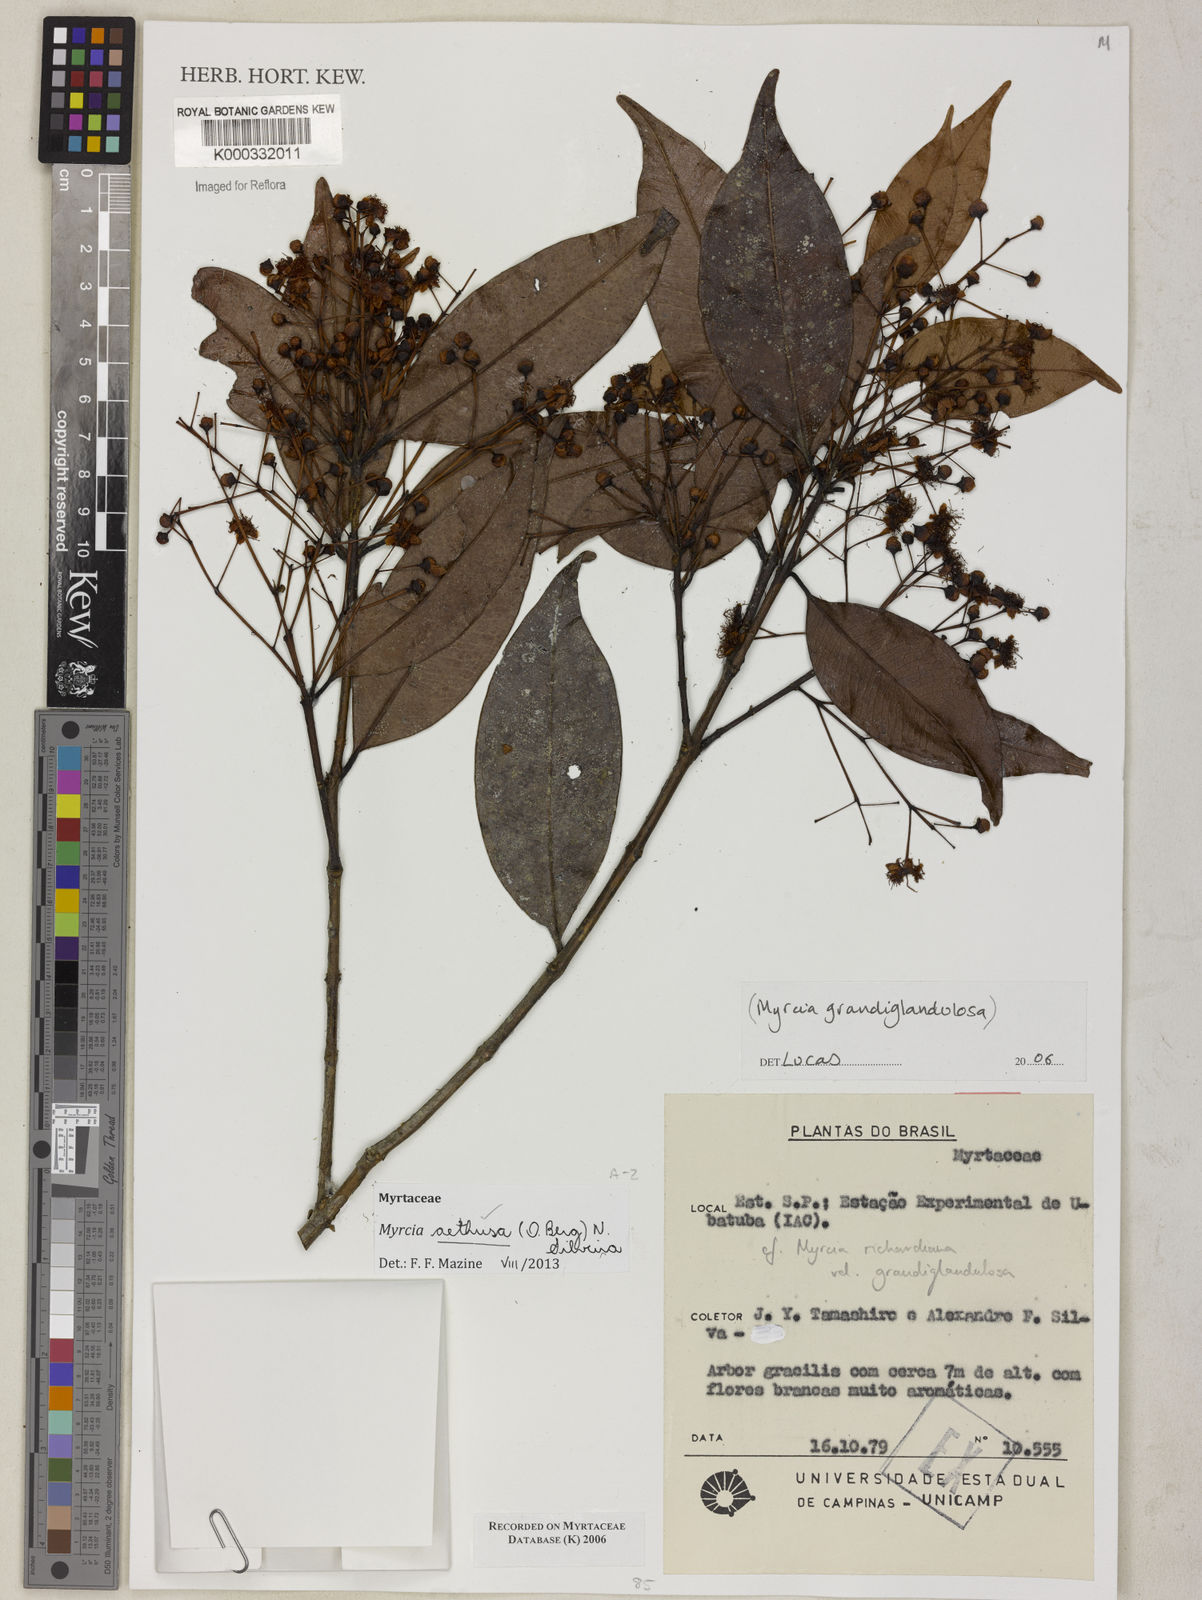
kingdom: Plantae
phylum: Tracheophyta
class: Magnoliopsida
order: Myrtales
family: Myrtaceae
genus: Myrcia
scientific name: Myrcia aethusa
